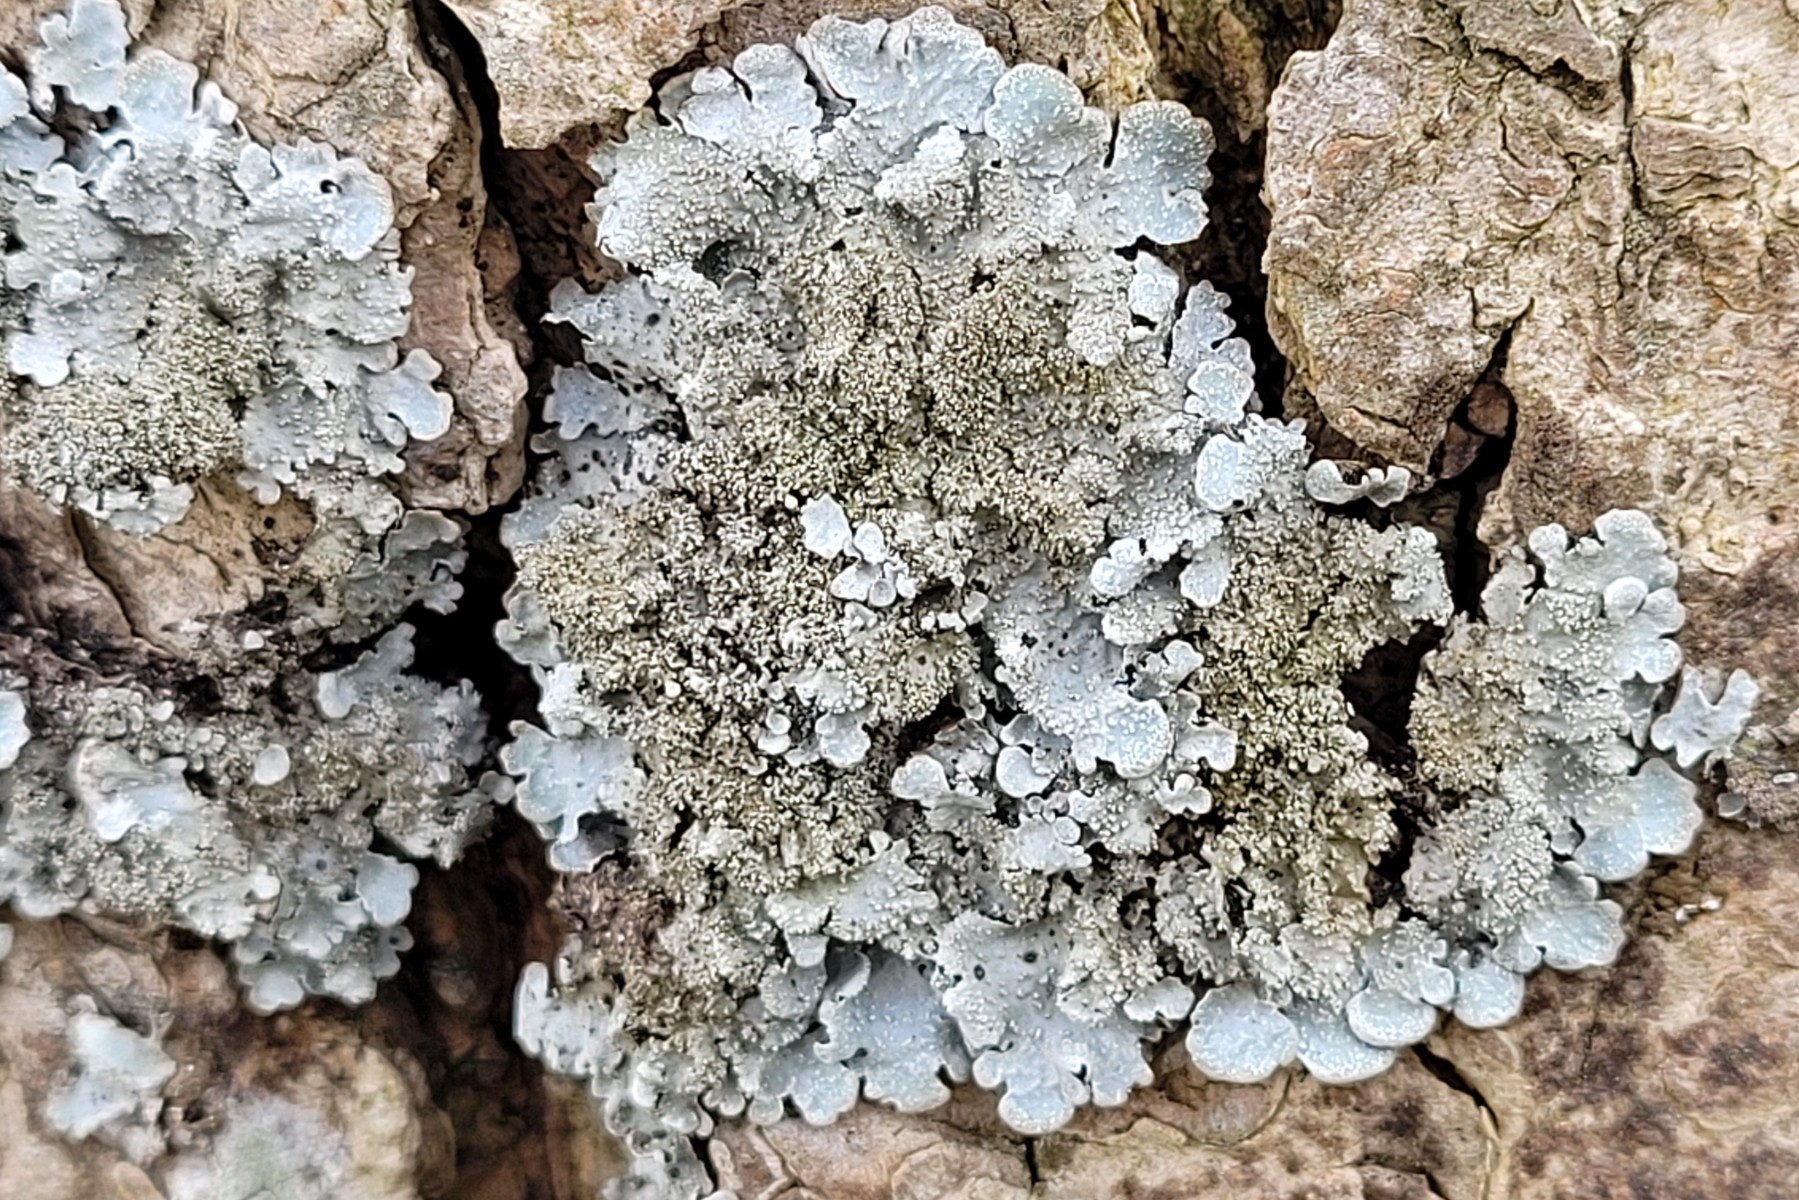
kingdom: Fungi
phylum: Ascomycota
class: Lecanoromycetes
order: Lecanorales
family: Parmeliaceae
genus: Parmelia
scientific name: Parmelia saxatilis
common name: farve-skållav
